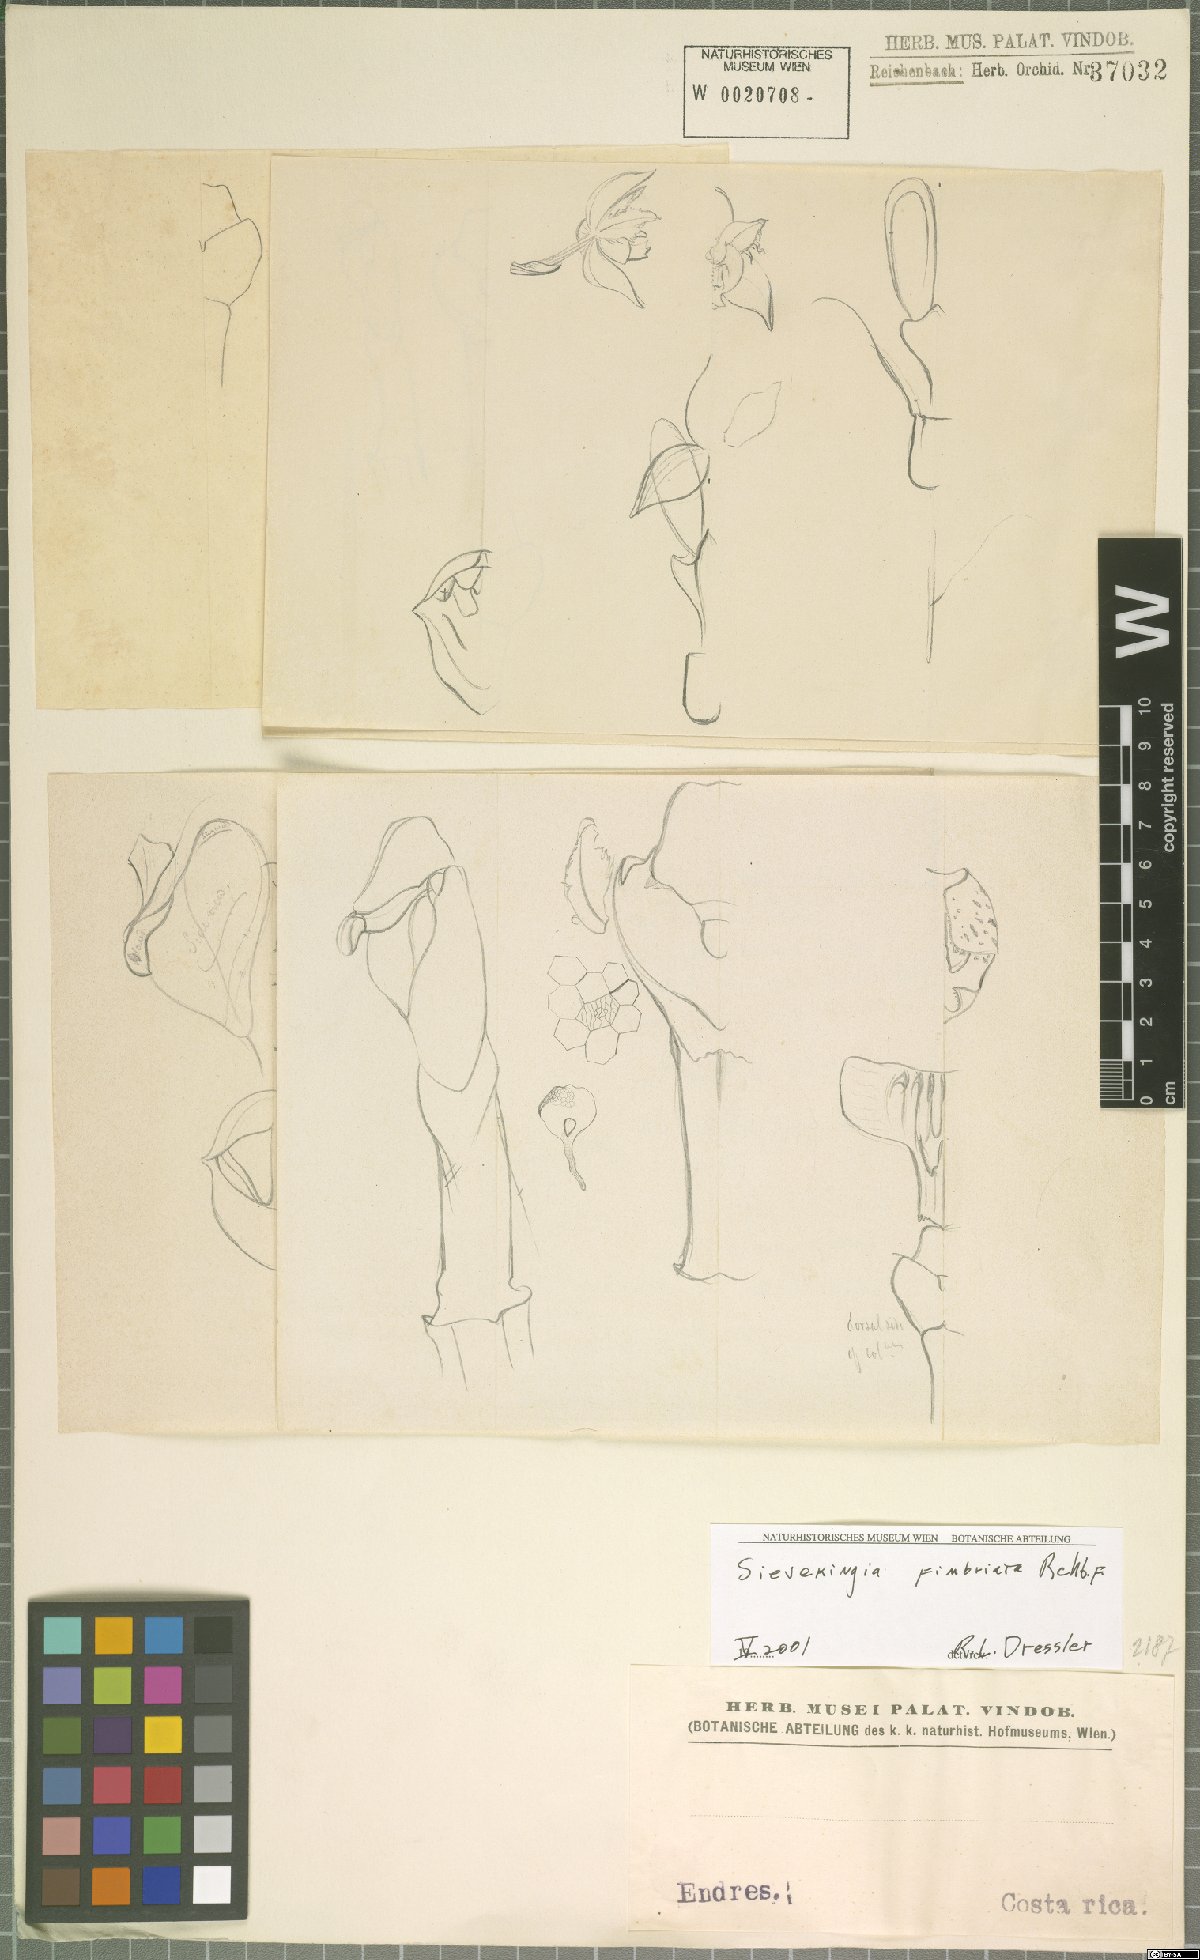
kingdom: Plantae
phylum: Tracheophyta
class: Liliopsida
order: Asparagales
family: Orchidaceae
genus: Sievekingia
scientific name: Sievekingia fimbriata
